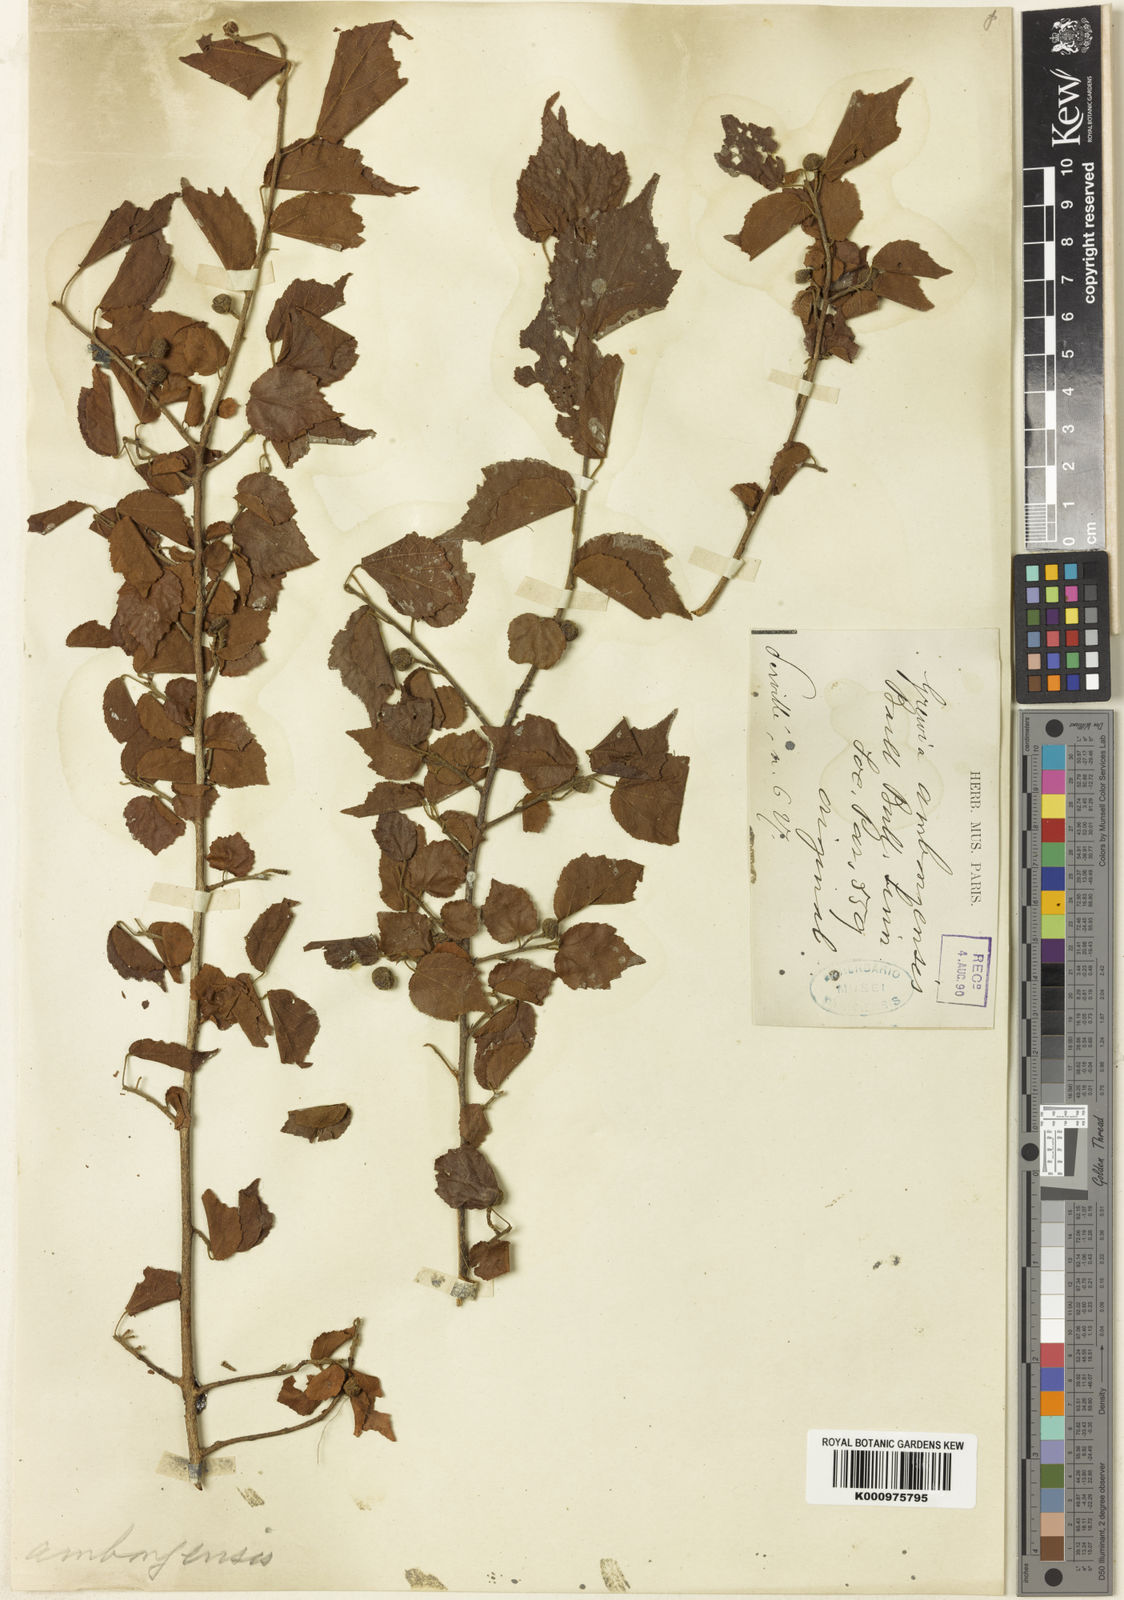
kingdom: Plantae
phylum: Tracheophyta
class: Magnoliopsida
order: Malvales
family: Malvaceae
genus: Grewia
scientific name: Grewia
